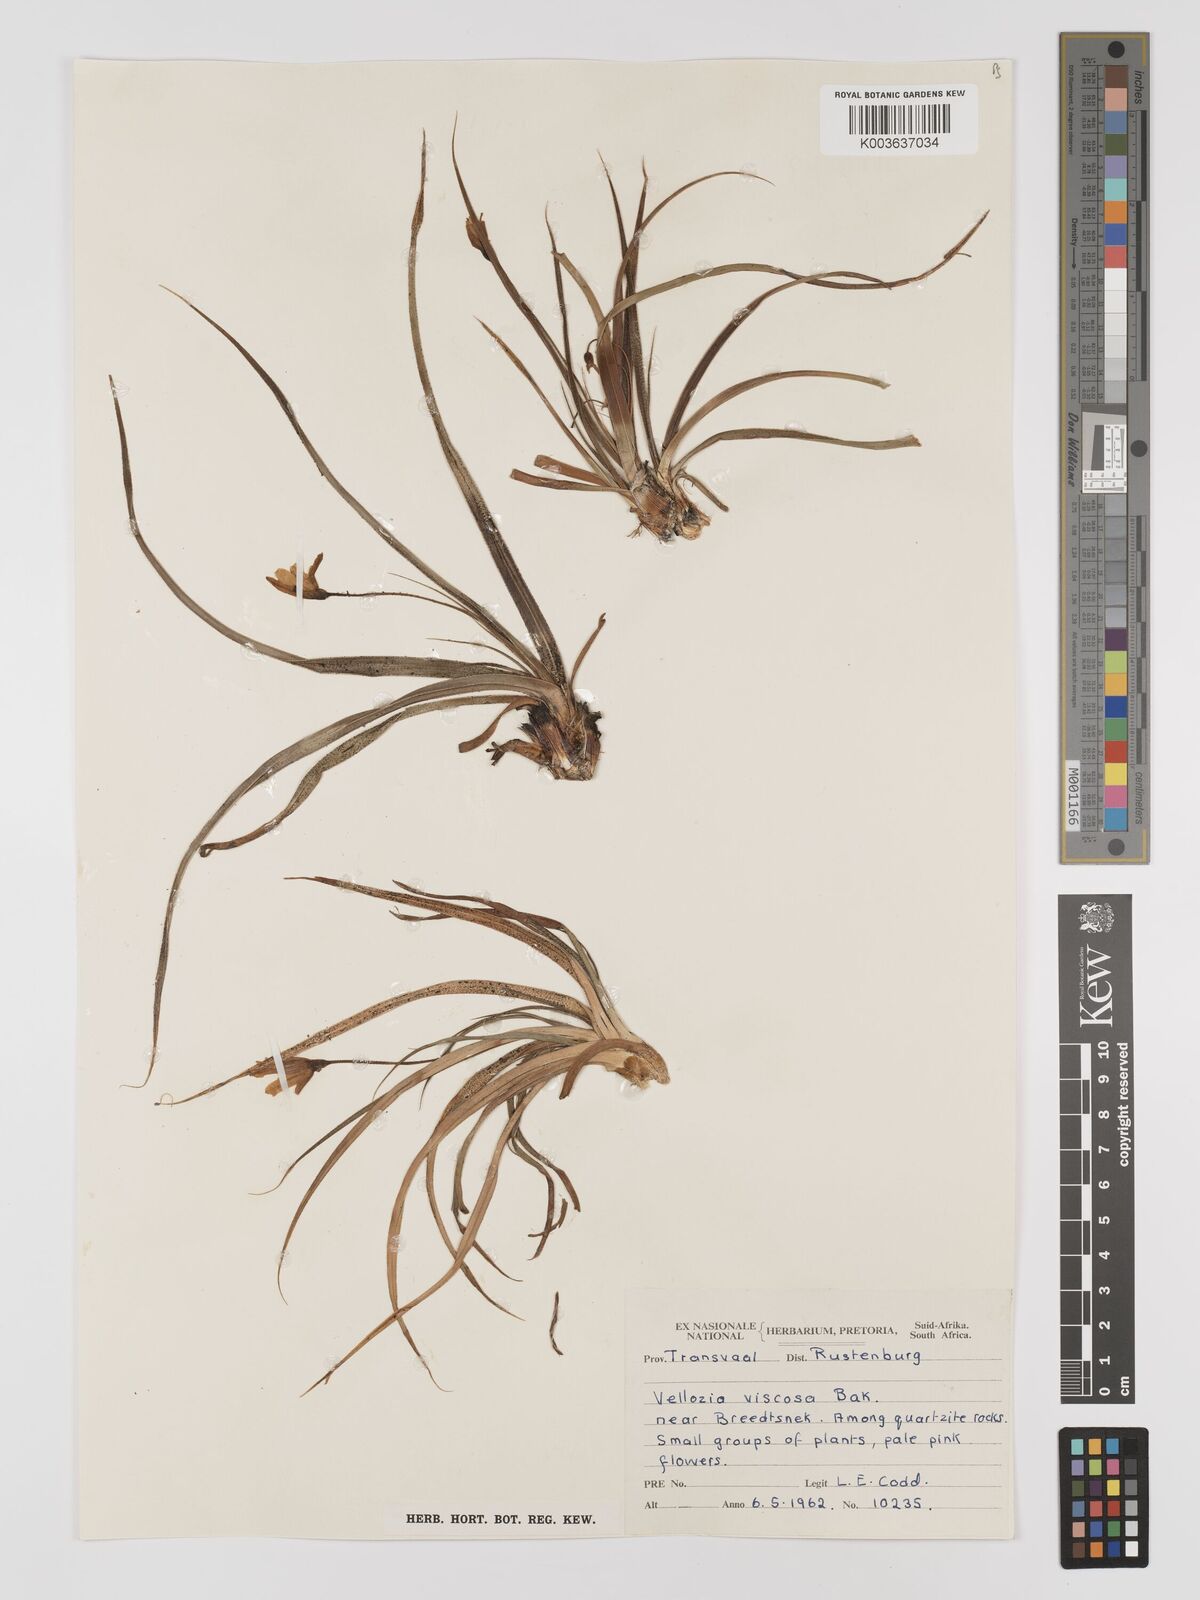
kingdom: Plantae
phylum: Tracheophyta
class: Liliopsida
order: Pandanales
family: Velloziaceae
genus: Xerophyta
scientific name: Xerophyta viscosa
